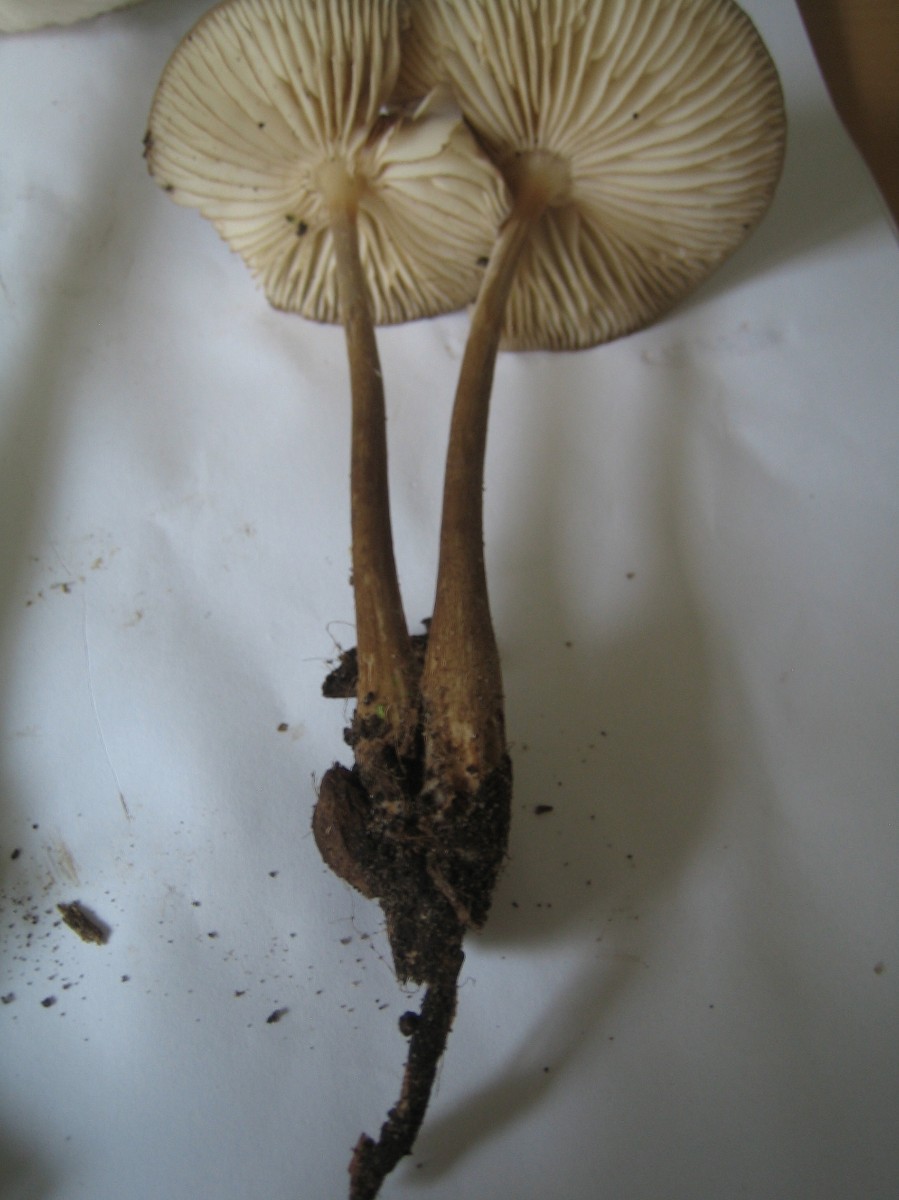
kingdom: Fungi
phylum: Basidiomycota
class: Agaricomycetes
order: Agaricales
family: Physalacriaceae
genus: Hymenopellis
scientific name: Hymenopellis radicata
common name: almindelig pælerodshat
